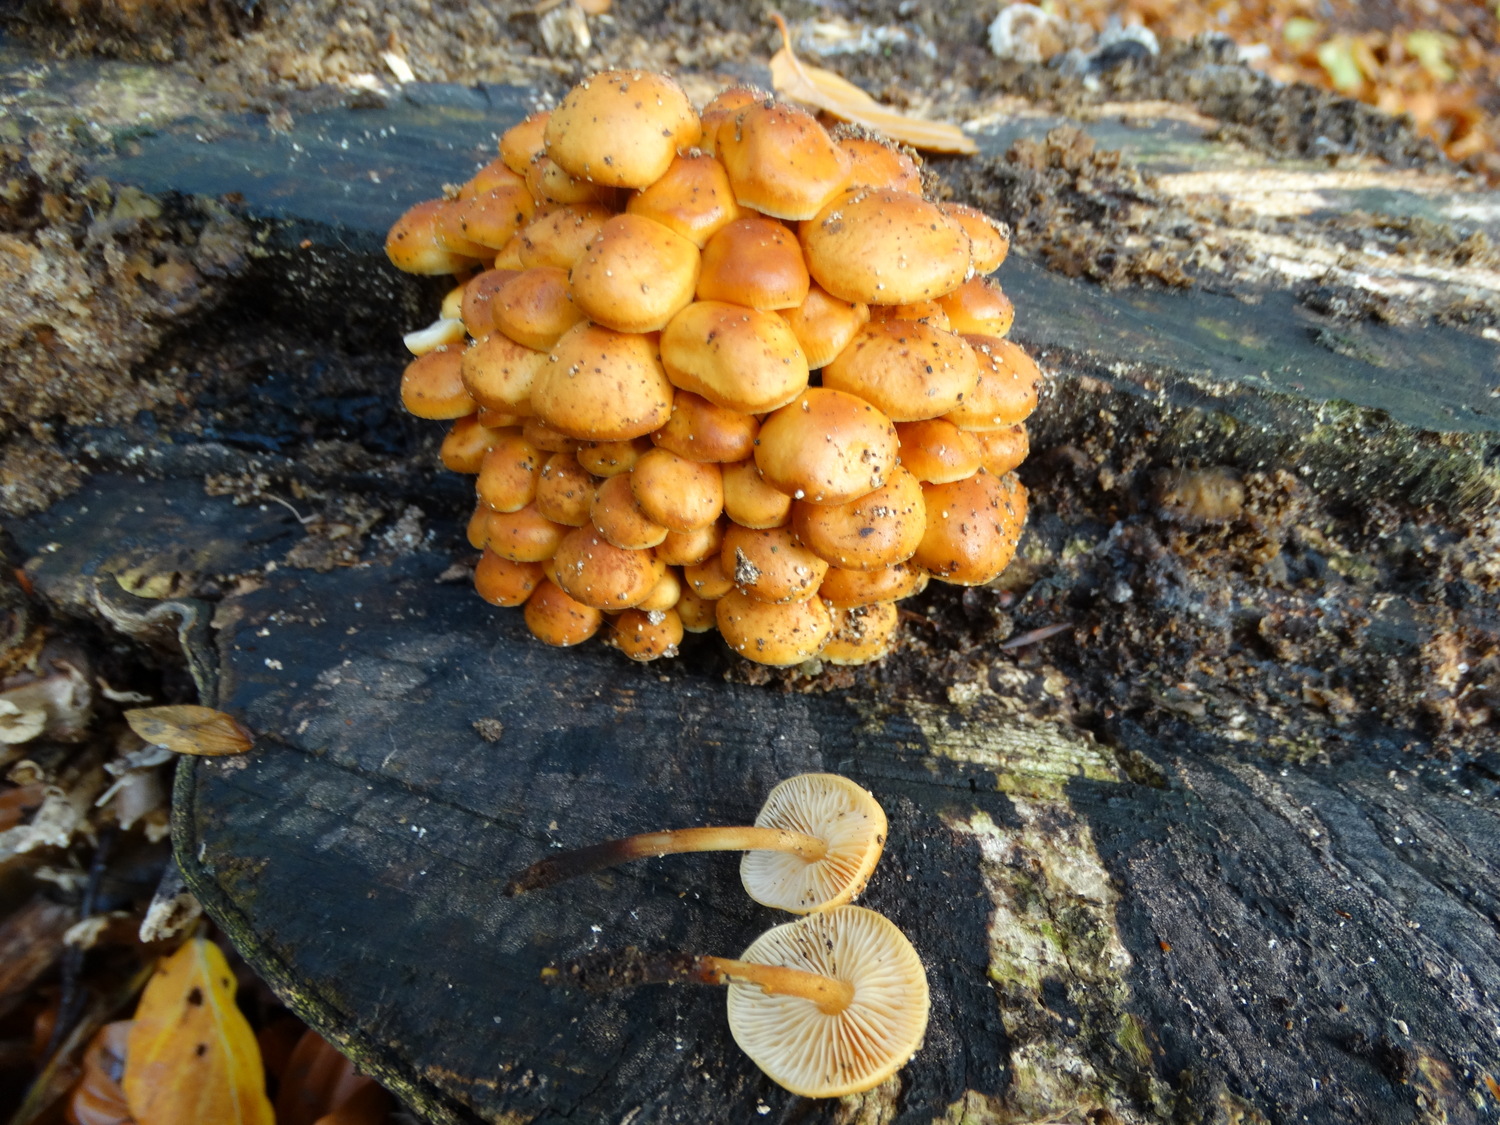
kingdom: Fungi
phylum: Basidiomycota
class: Agaricomycetes
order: Agaricales
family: Physalacriaceae
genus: Flammulina
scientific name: Flammulina velutipes
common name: gul fløjlsfod
